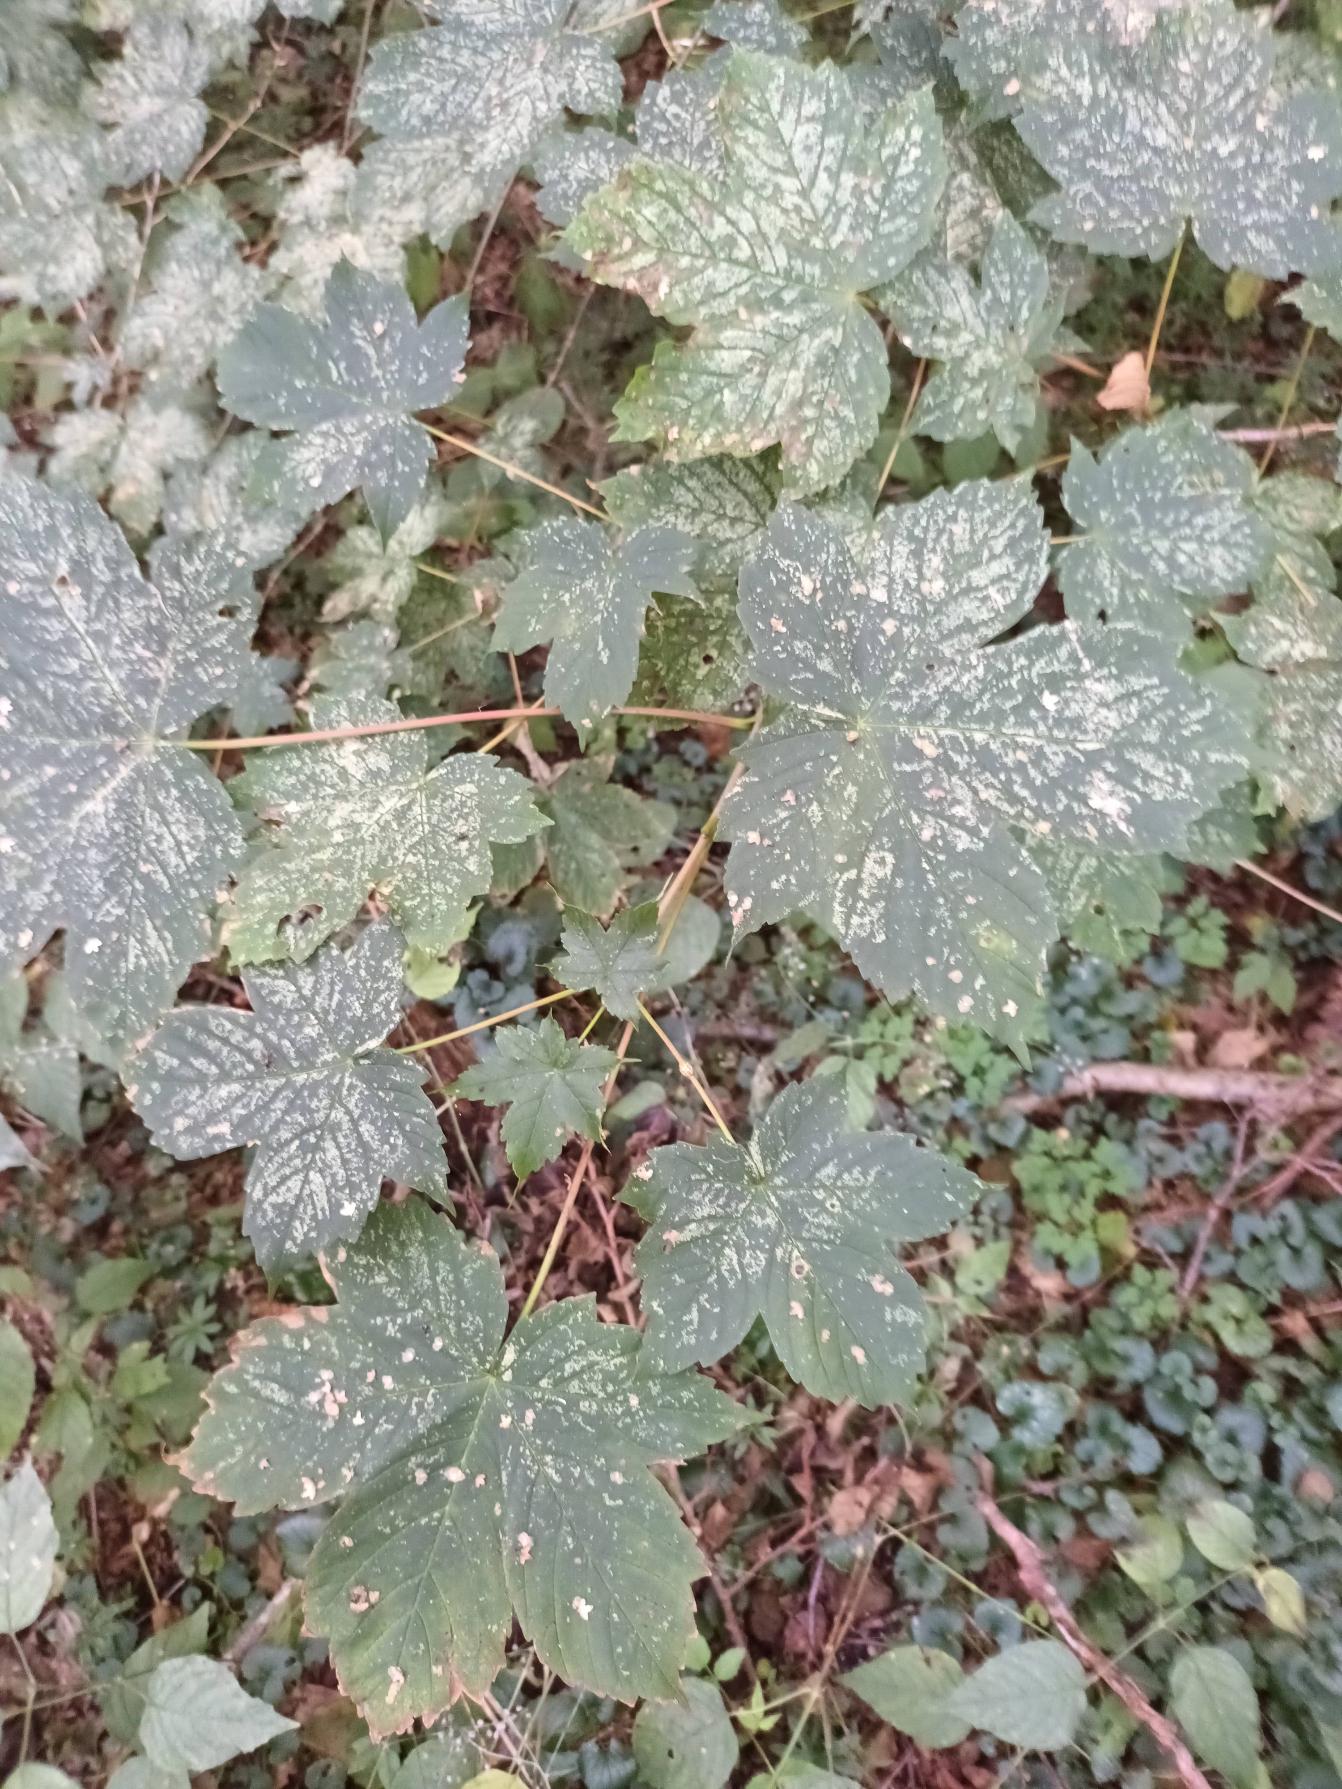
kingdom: Plantae
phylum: Tracheophyta
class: Magnoliopsida
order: Sapindales
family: Sapindaceae
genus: Acer
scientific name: Acer pseudoplatanus
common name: Ahorn
